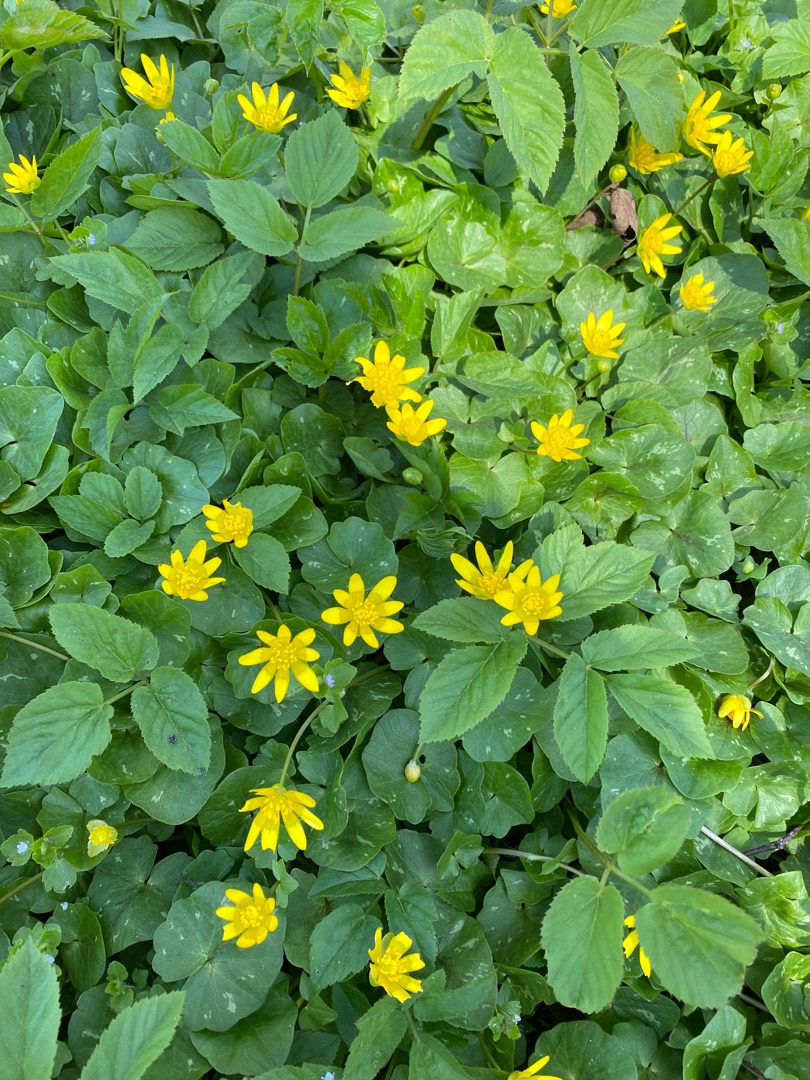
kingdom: Plantae
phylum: Tracheophyta
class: Magnoliopsida
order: Ranunculales
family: Ranunculaceae
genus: Ficaria
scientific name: Ficaria verna
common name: Vorterod
